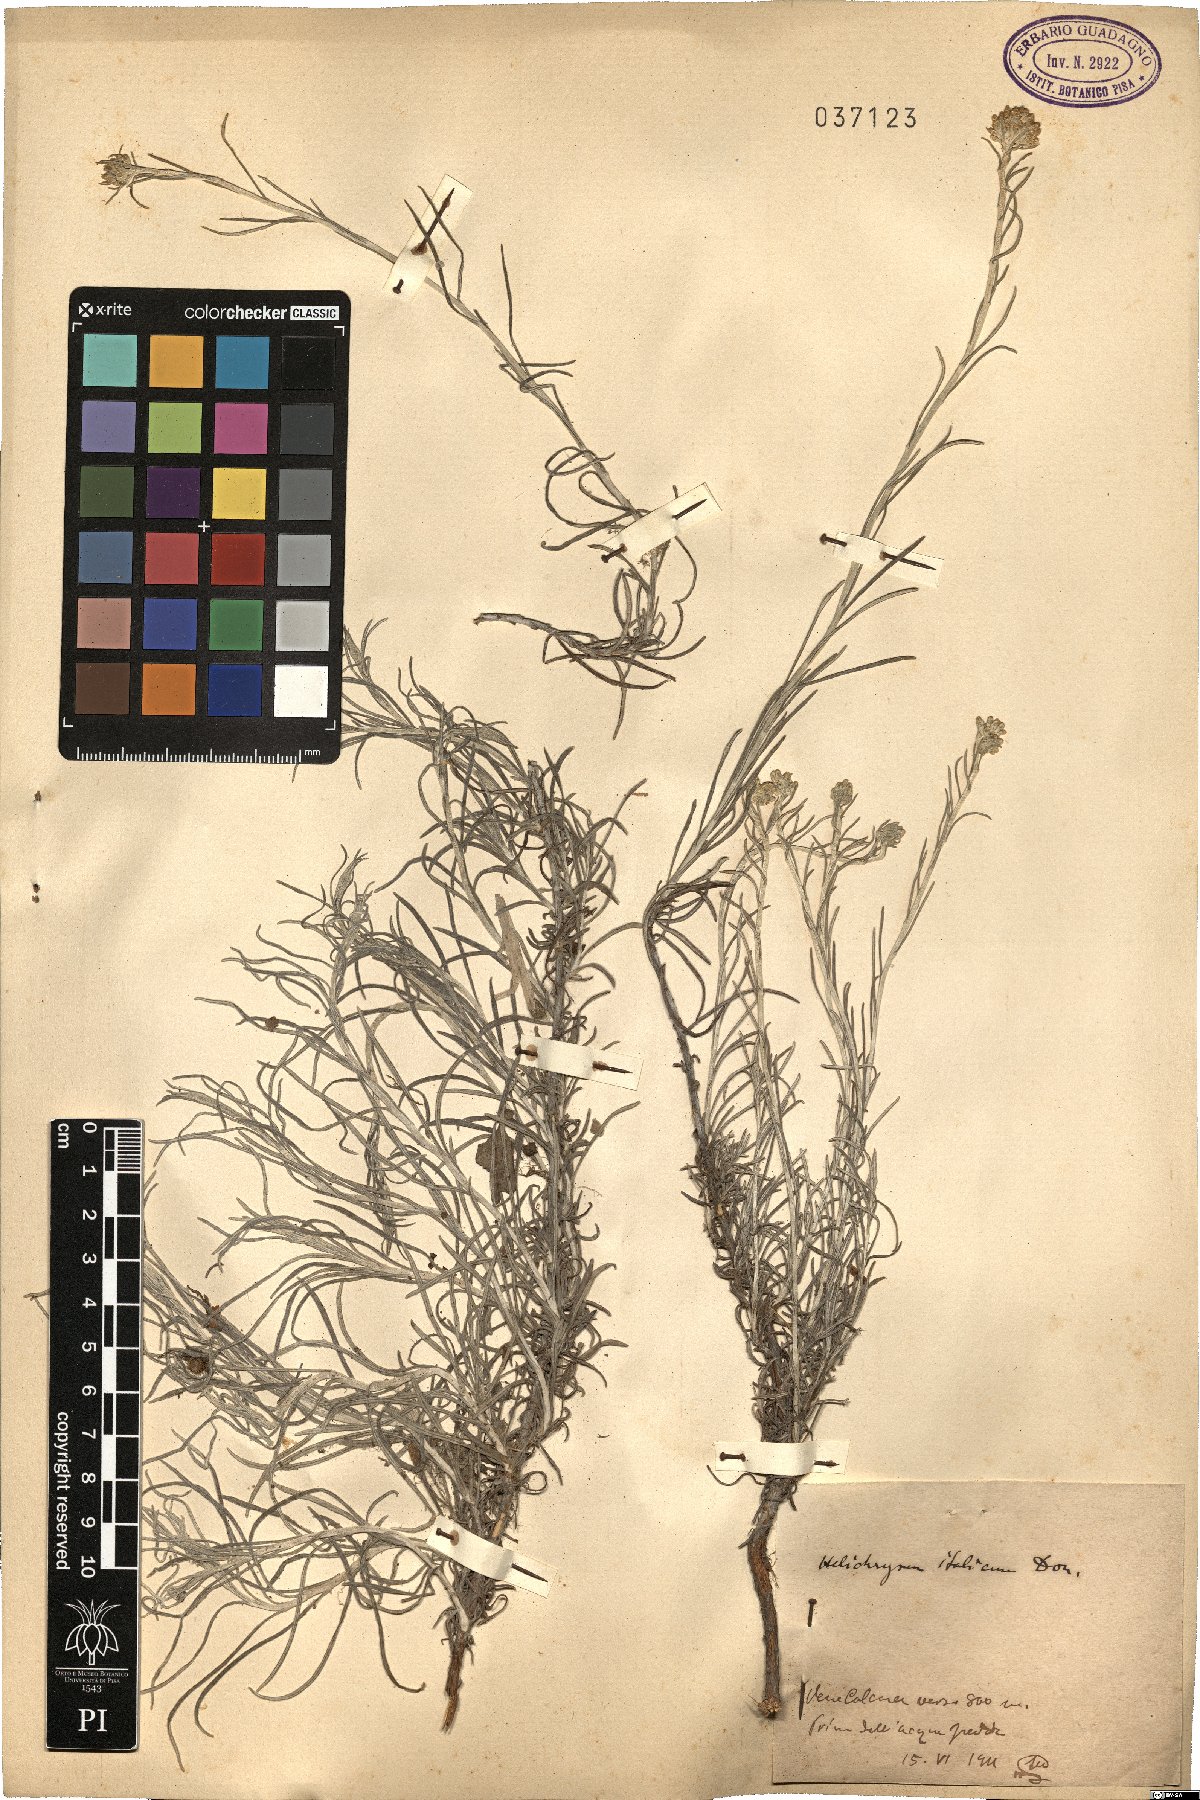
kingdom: Plantae
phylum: Tracheophyta
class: Magnoliopsida
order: Asterales
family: Asteraceae
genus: Helichrysum
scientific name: Helichrysum italicum
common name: Curryplant
